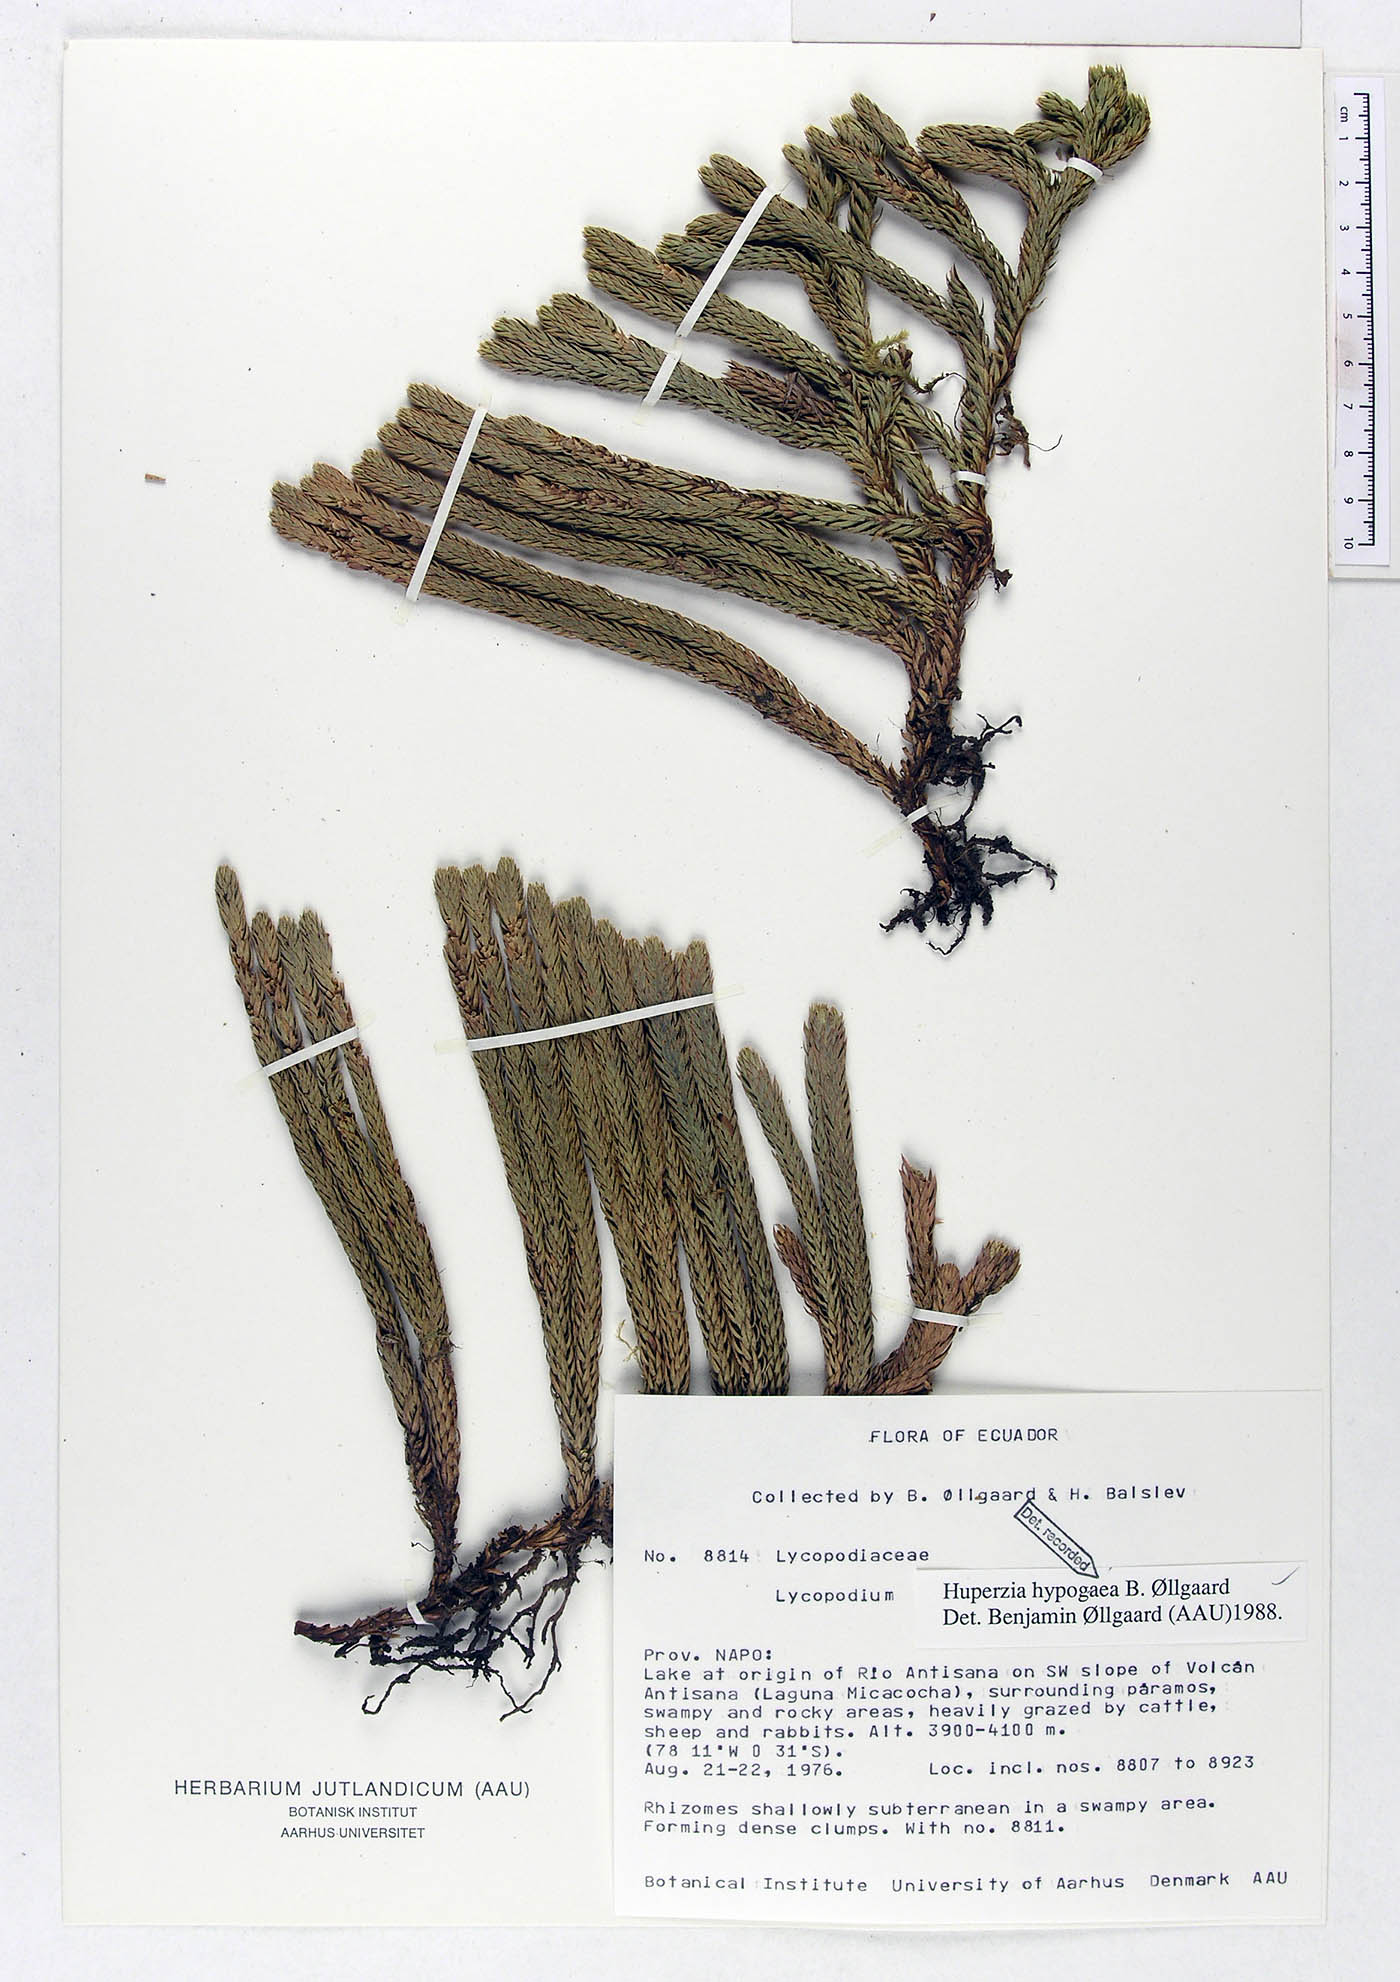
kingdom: Plantae
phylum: Tracheophyta
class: Lycopodiopsida
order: Lycopodiales
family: Lycopodiaceae
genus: Phlegmariurus
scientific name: Phlegmariurus hypogaeus
